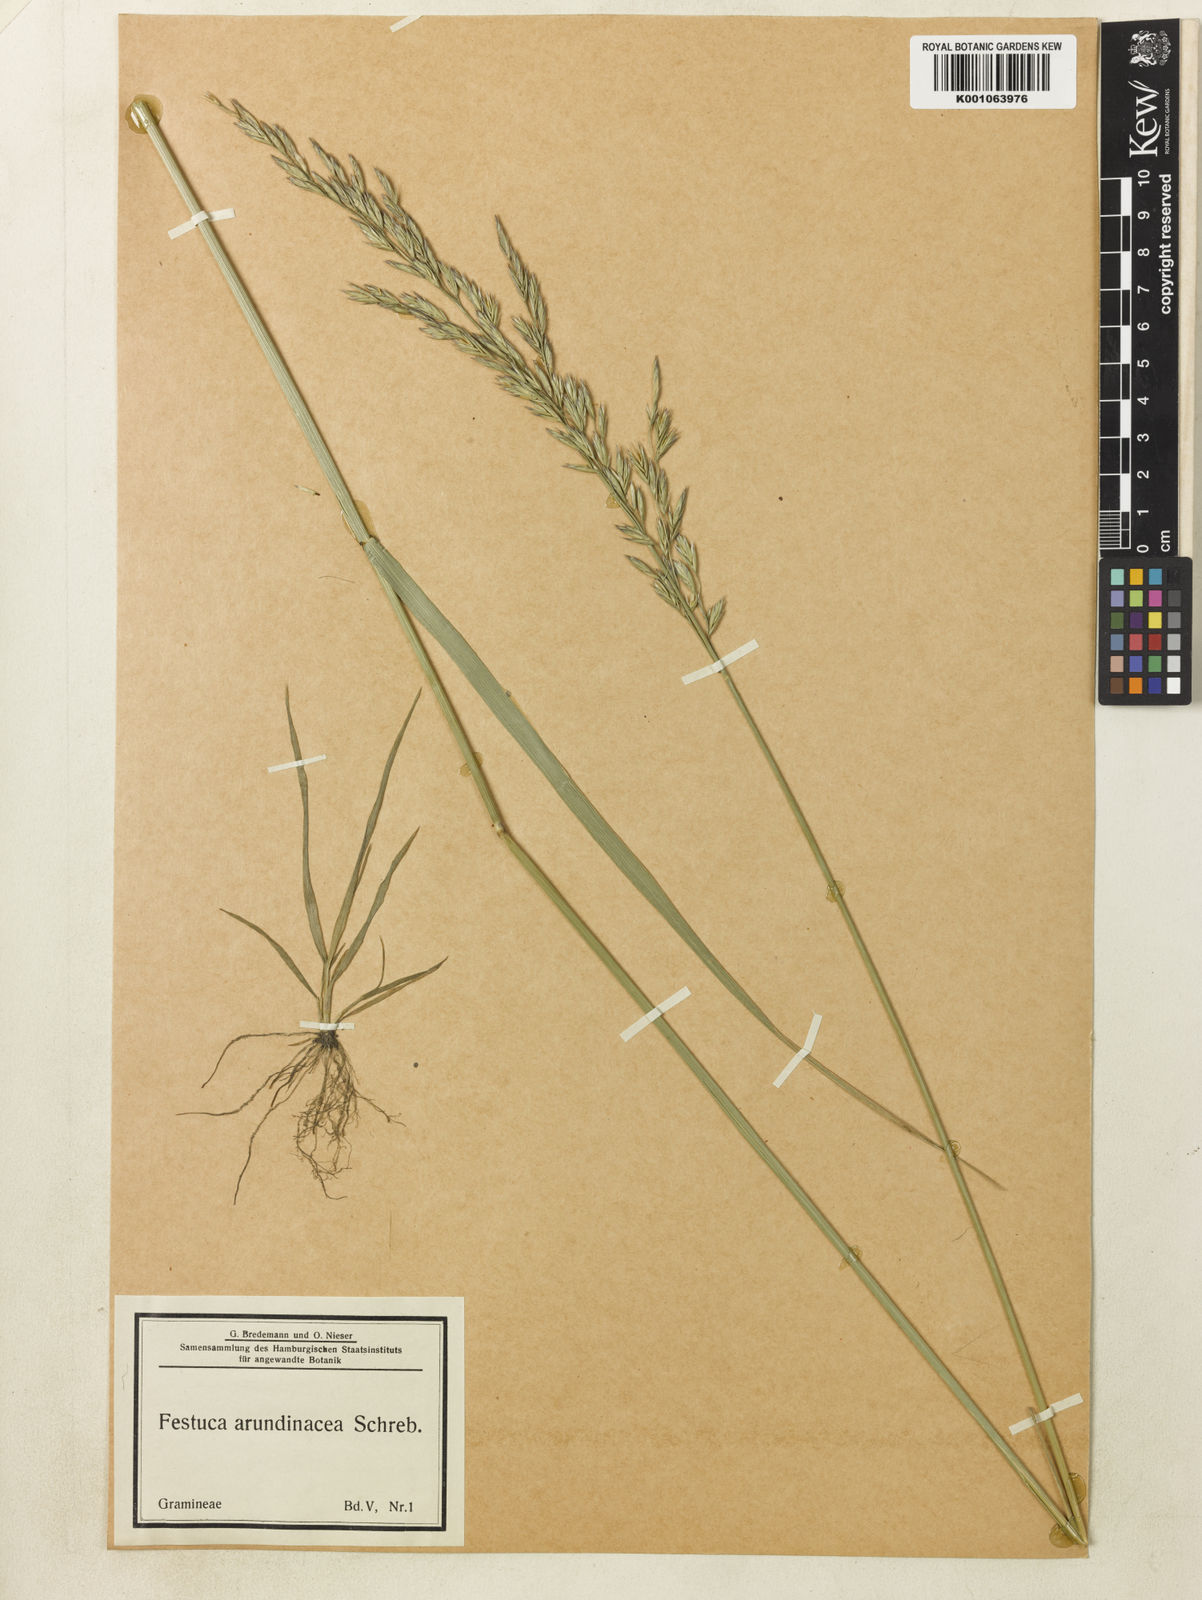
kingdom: Plantae
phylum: Tracheophyta
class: Liliopsida
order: Poales
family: Poaceae
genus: Lolium
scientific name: Lolium arundinaceum
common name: Reed fescue
